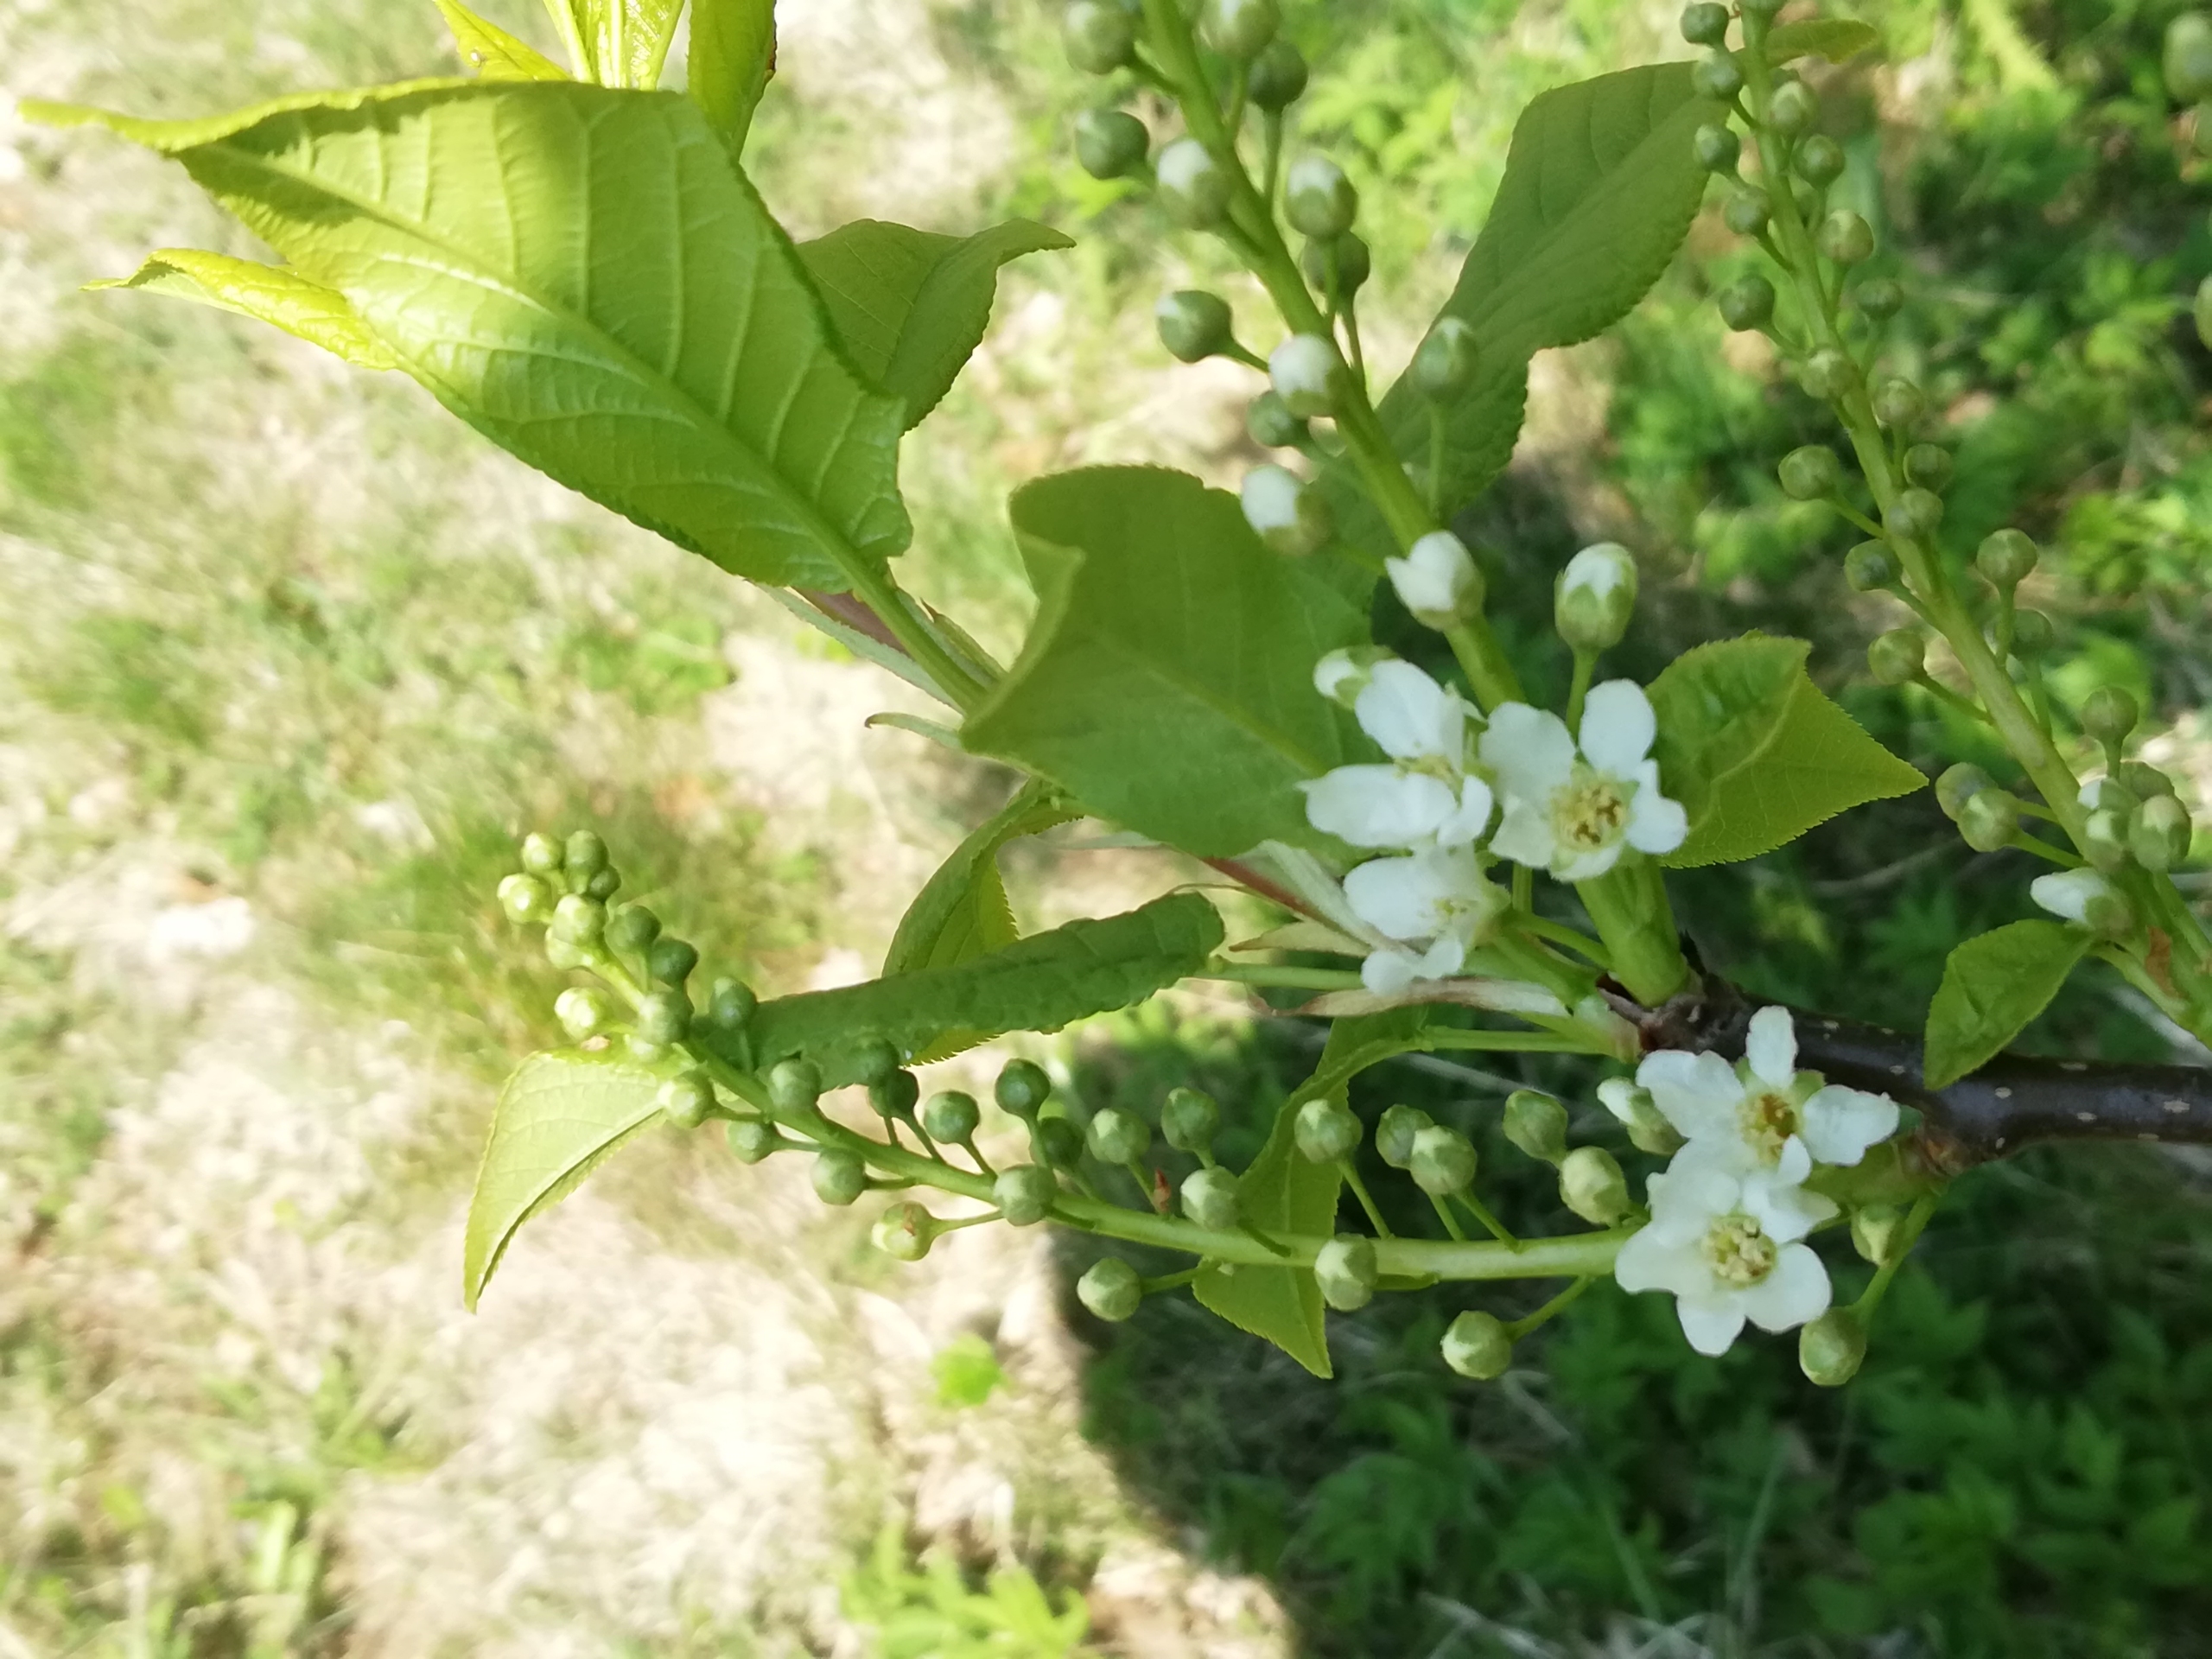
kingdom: Plantae
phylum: Tracheophyta
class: Magnoliopsida
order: Rosales
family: Rosaceae
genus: Prunus
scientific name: Prunus padus
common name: Almindelig hæg
